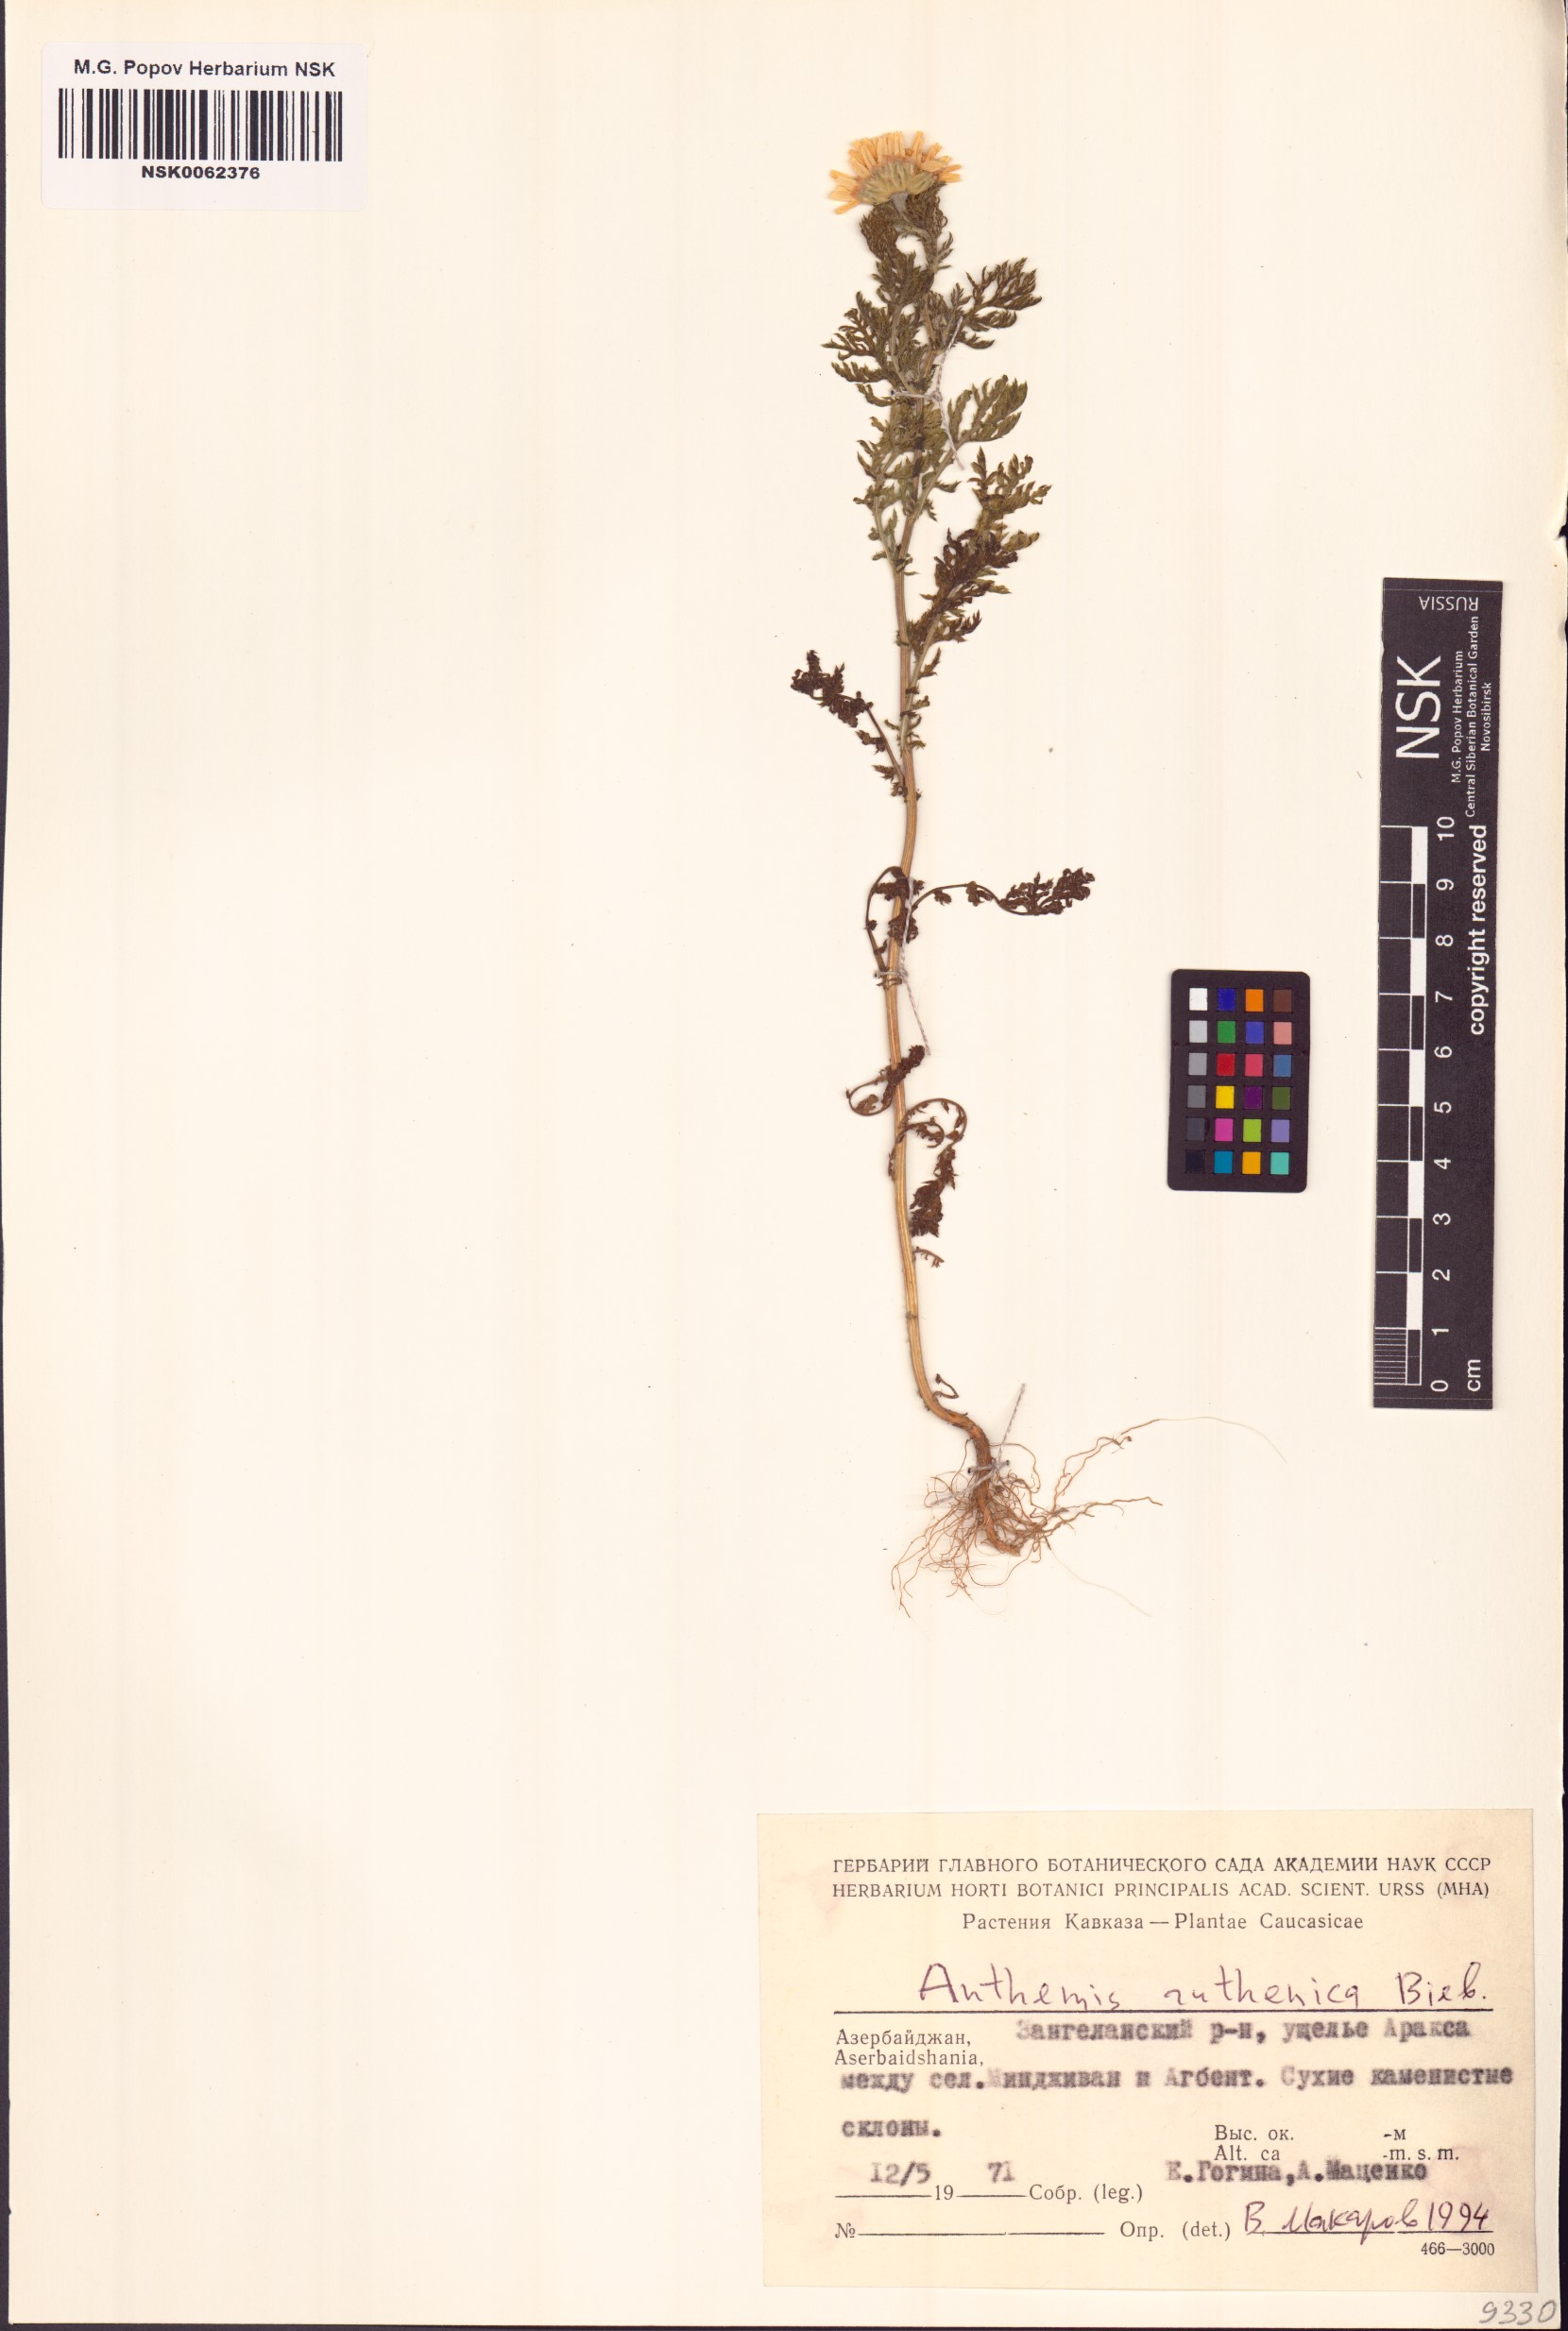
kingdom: Plantae
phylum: Tracheophyta
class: Magnoliopsida
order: Asterales
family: Asteraceae
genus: Anthemis
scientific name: Anthemis ruthenica
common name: Eastern chamomile
